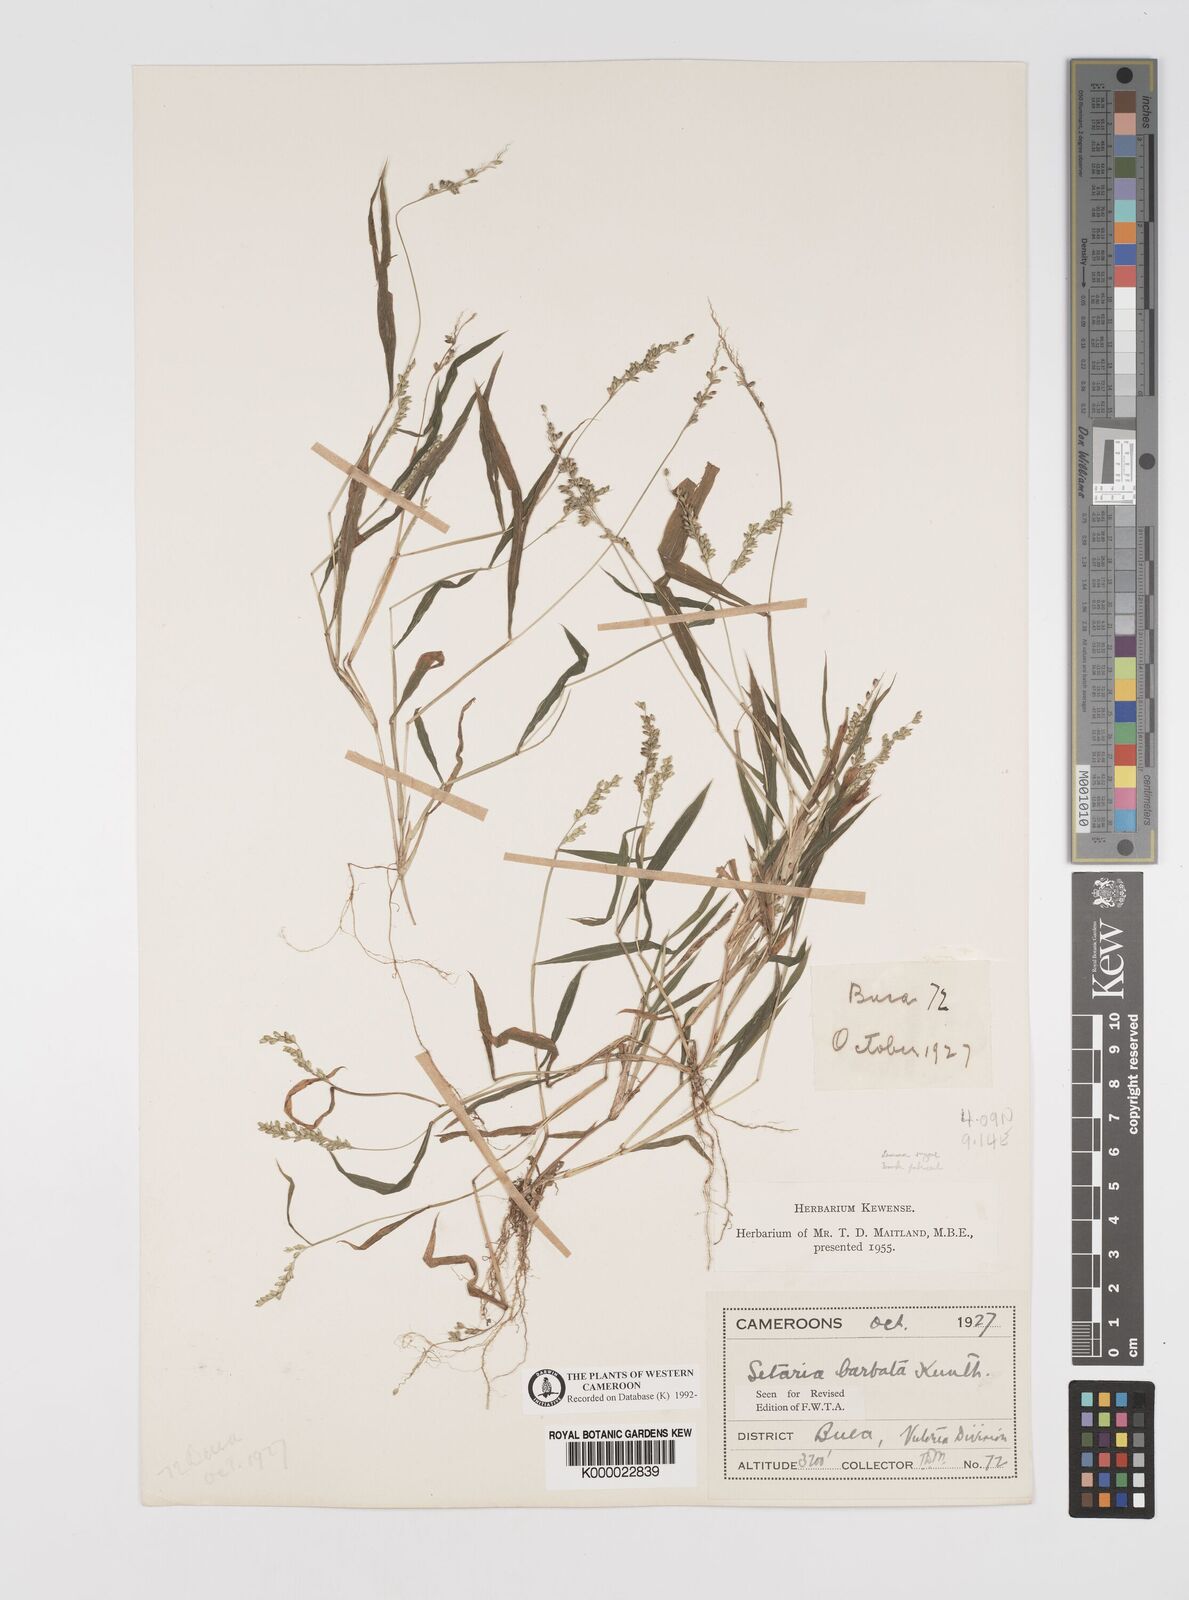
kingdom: Plantae
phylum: Tracheophyta
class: Liliopsida
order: Poales
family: Poaceae
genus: Setaria
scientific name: Setaria barbata
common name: East indian bristlegrass
